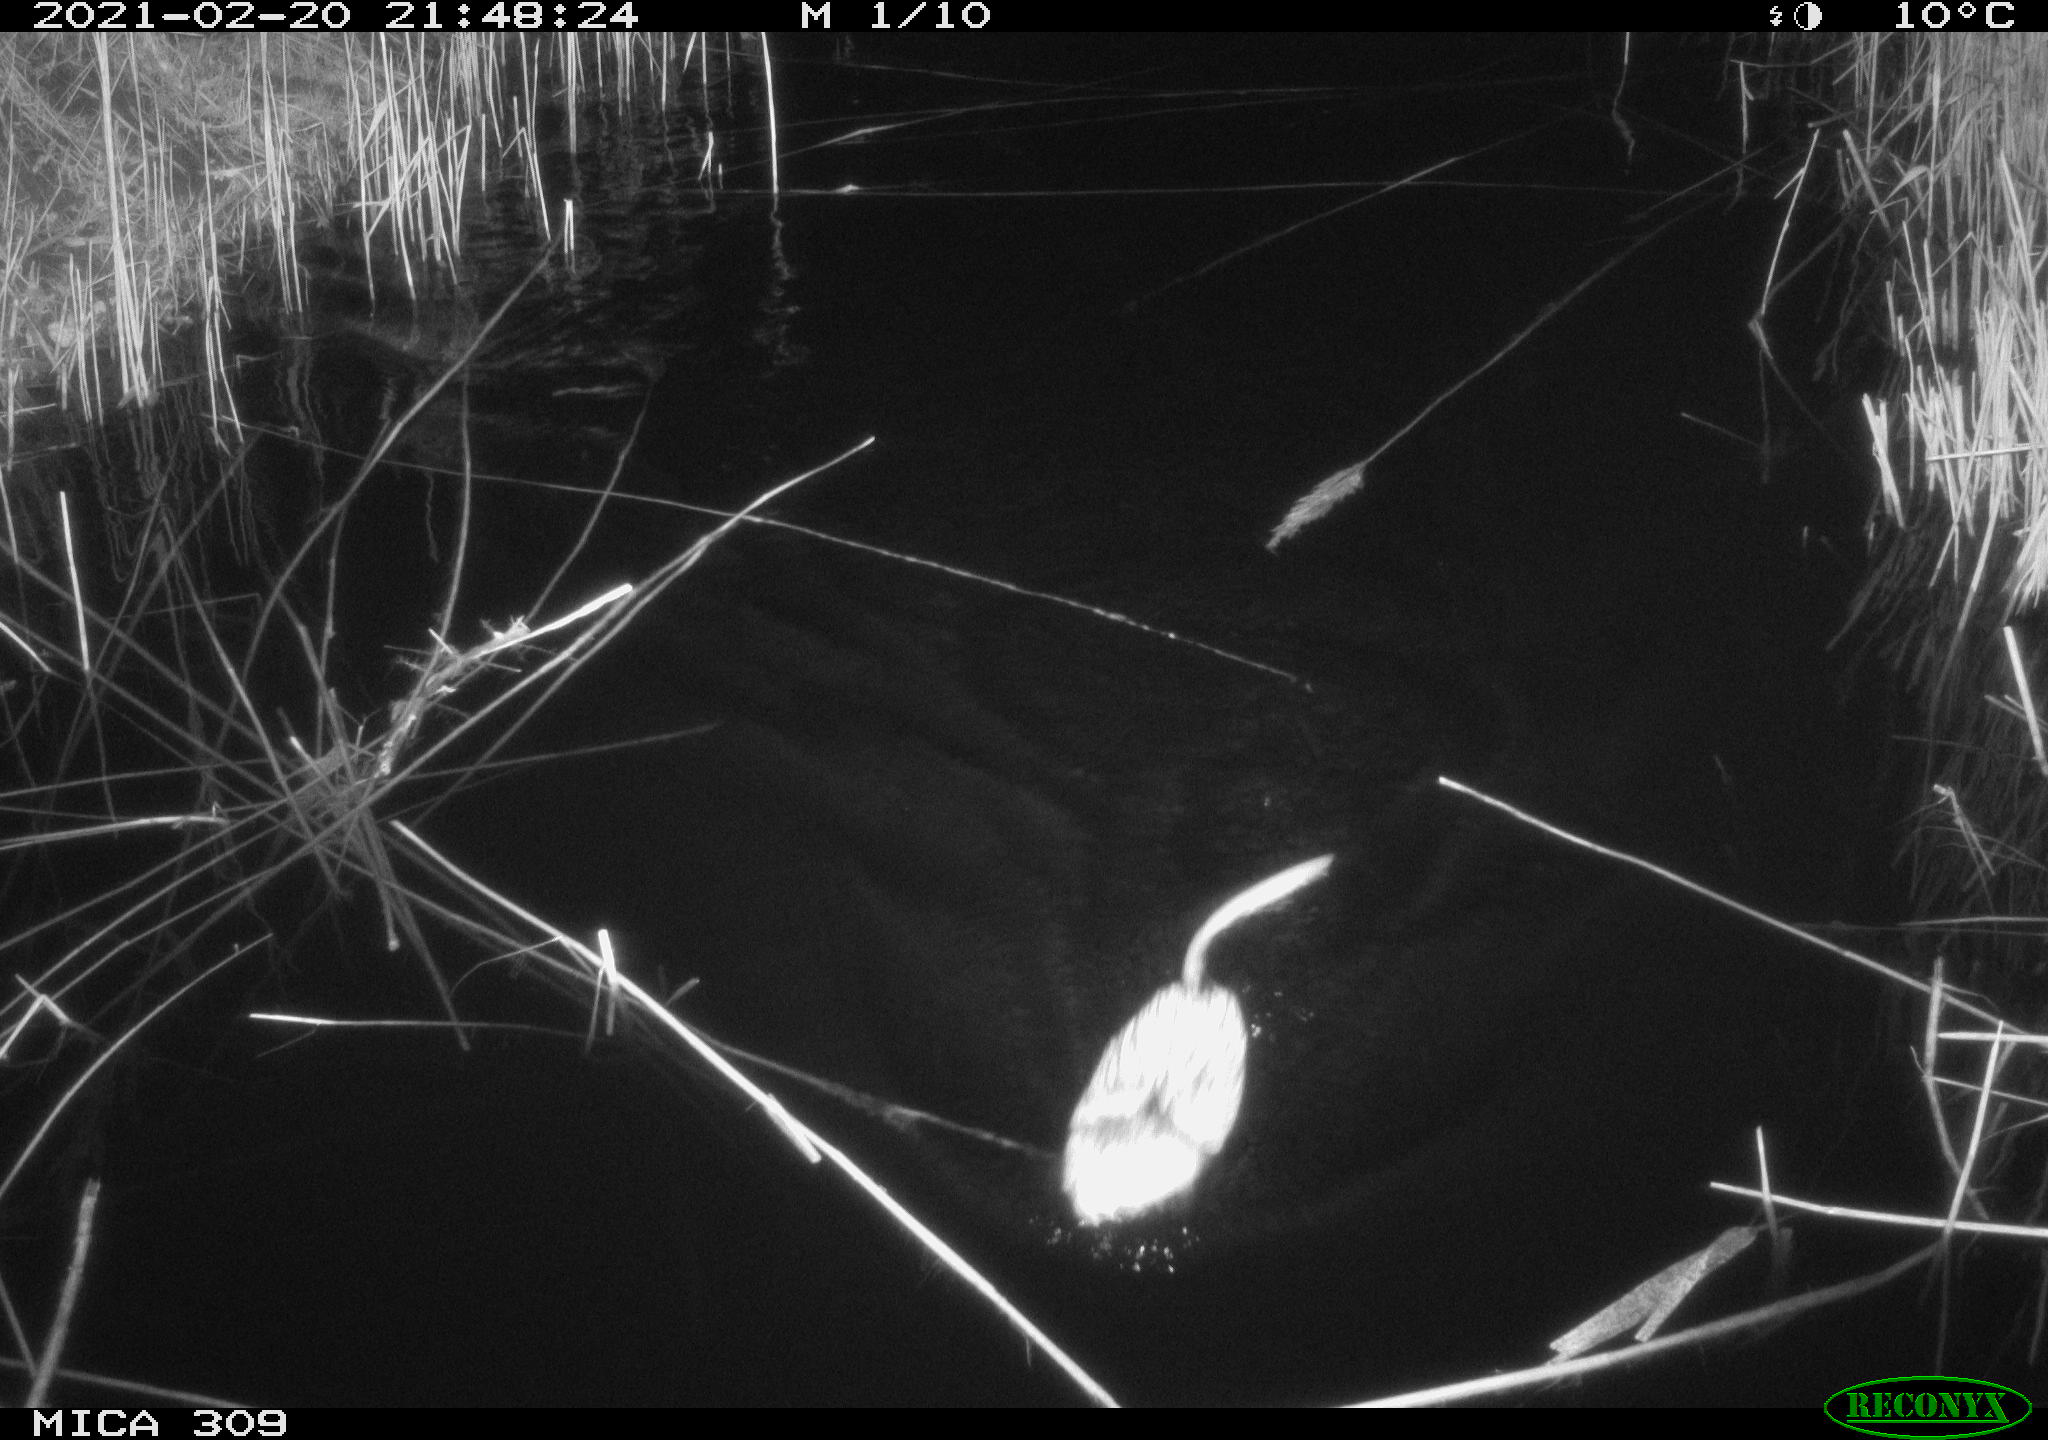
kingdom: Animalia
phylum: Chordata
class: Mammalia
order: Rodentia
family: Cricetidae
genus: Ondatra
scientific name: Ondatra zibethicus
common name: Muskrat
